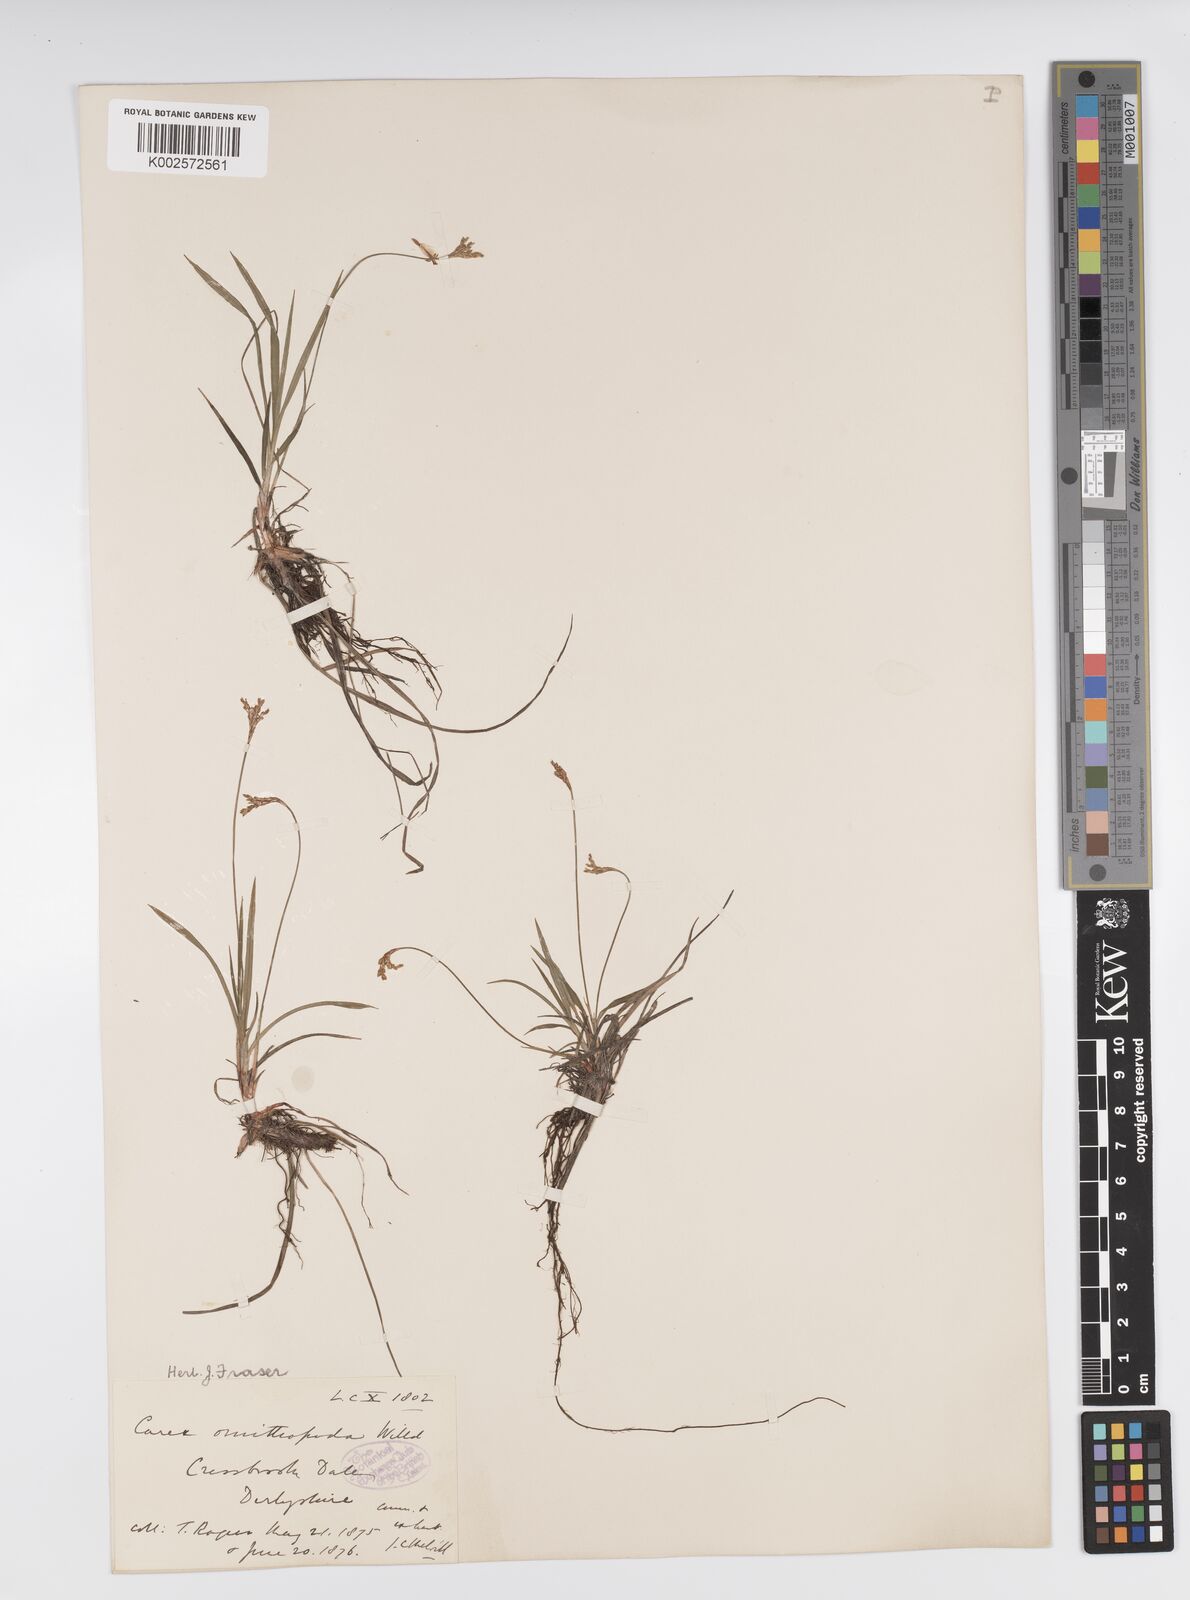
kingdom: Plantae
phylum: Tracheophyta
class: Liliopsida
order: Poales
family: Cyperaceae
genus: Carex
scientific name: Carex ornithopoda
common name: Bird's-foot sedge
